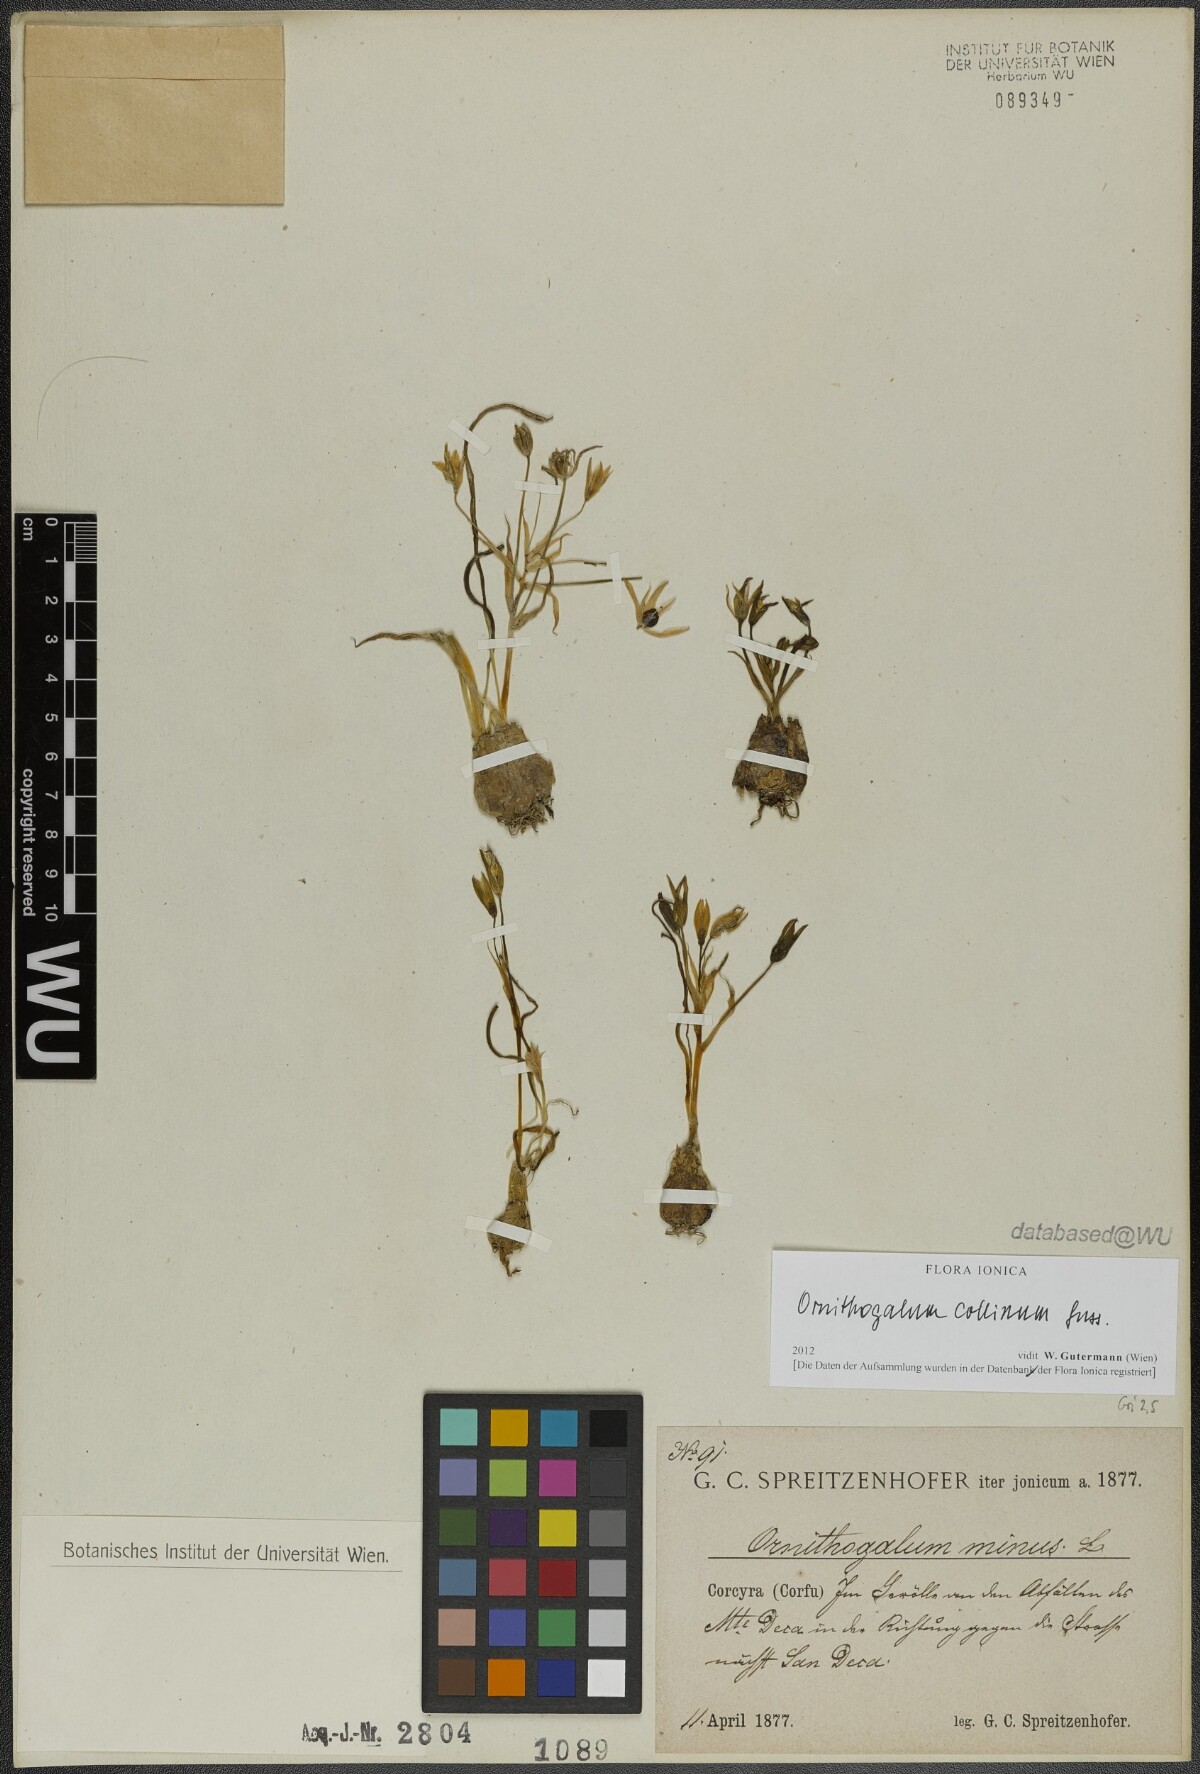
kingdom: Plantae
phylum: Tracheophyta
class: Liliopsida
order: Asparagales
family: Asparagaceae
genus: Ornithogalum
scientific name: Ornithogalum collinum
